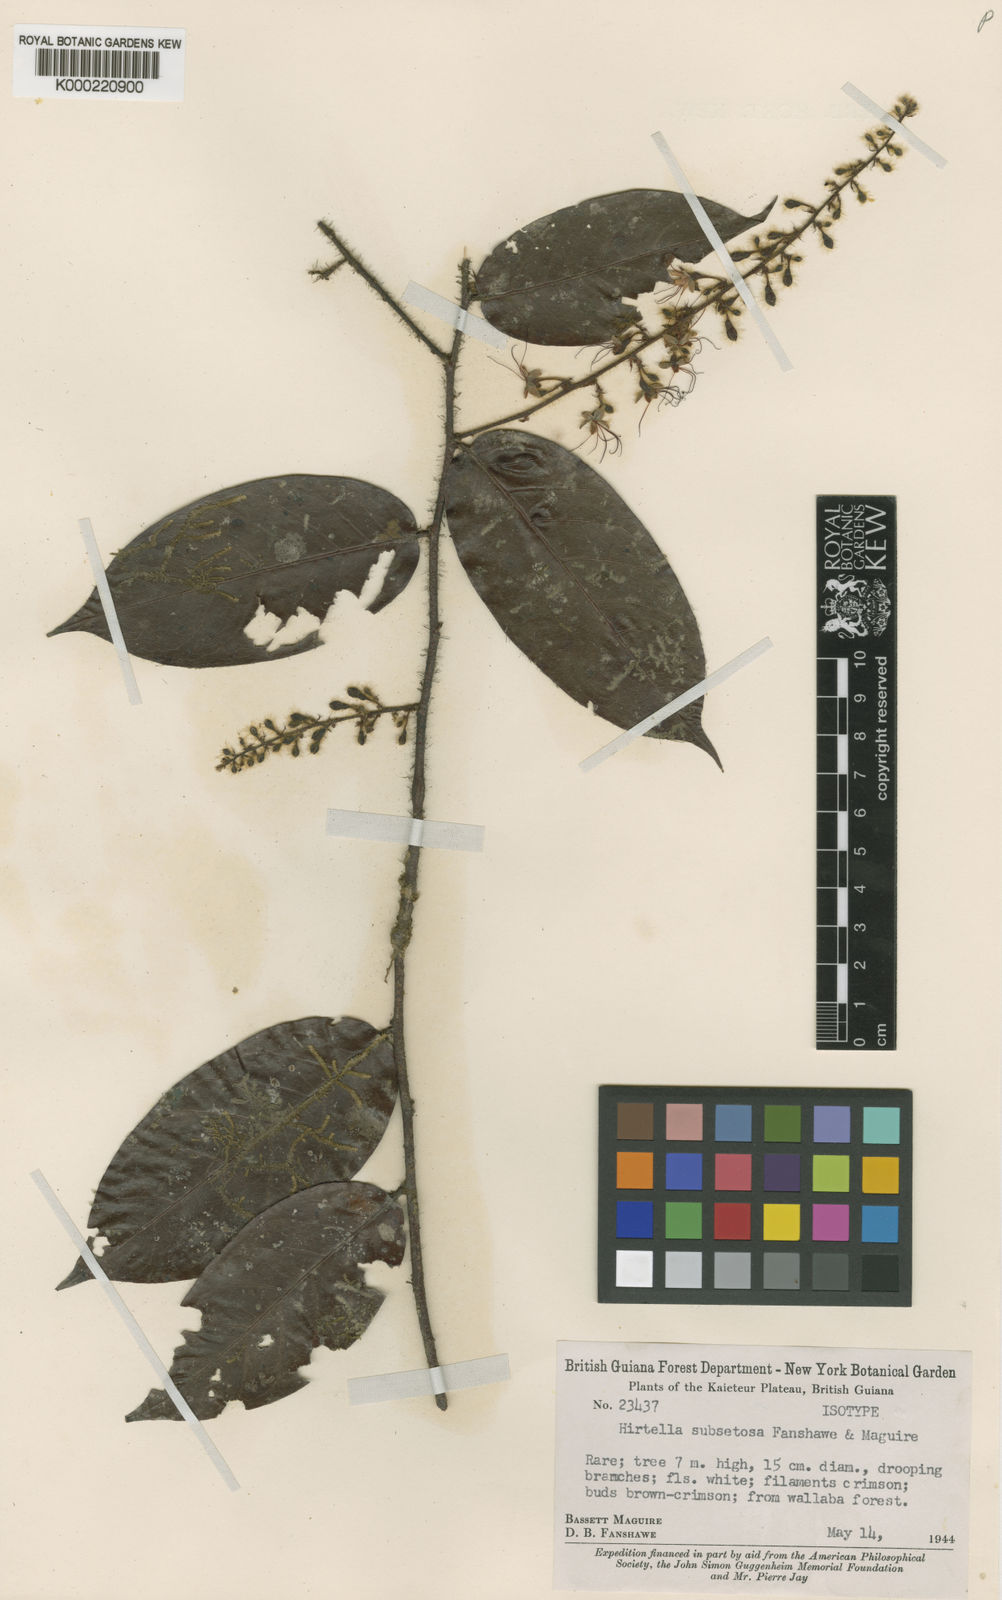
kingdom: Plantae
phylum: Tracheophyta
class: Magnoliopsida
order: Malpighiales
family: Chrysobalanaceae
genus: Hirtella
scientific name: Hirtella hispidula
